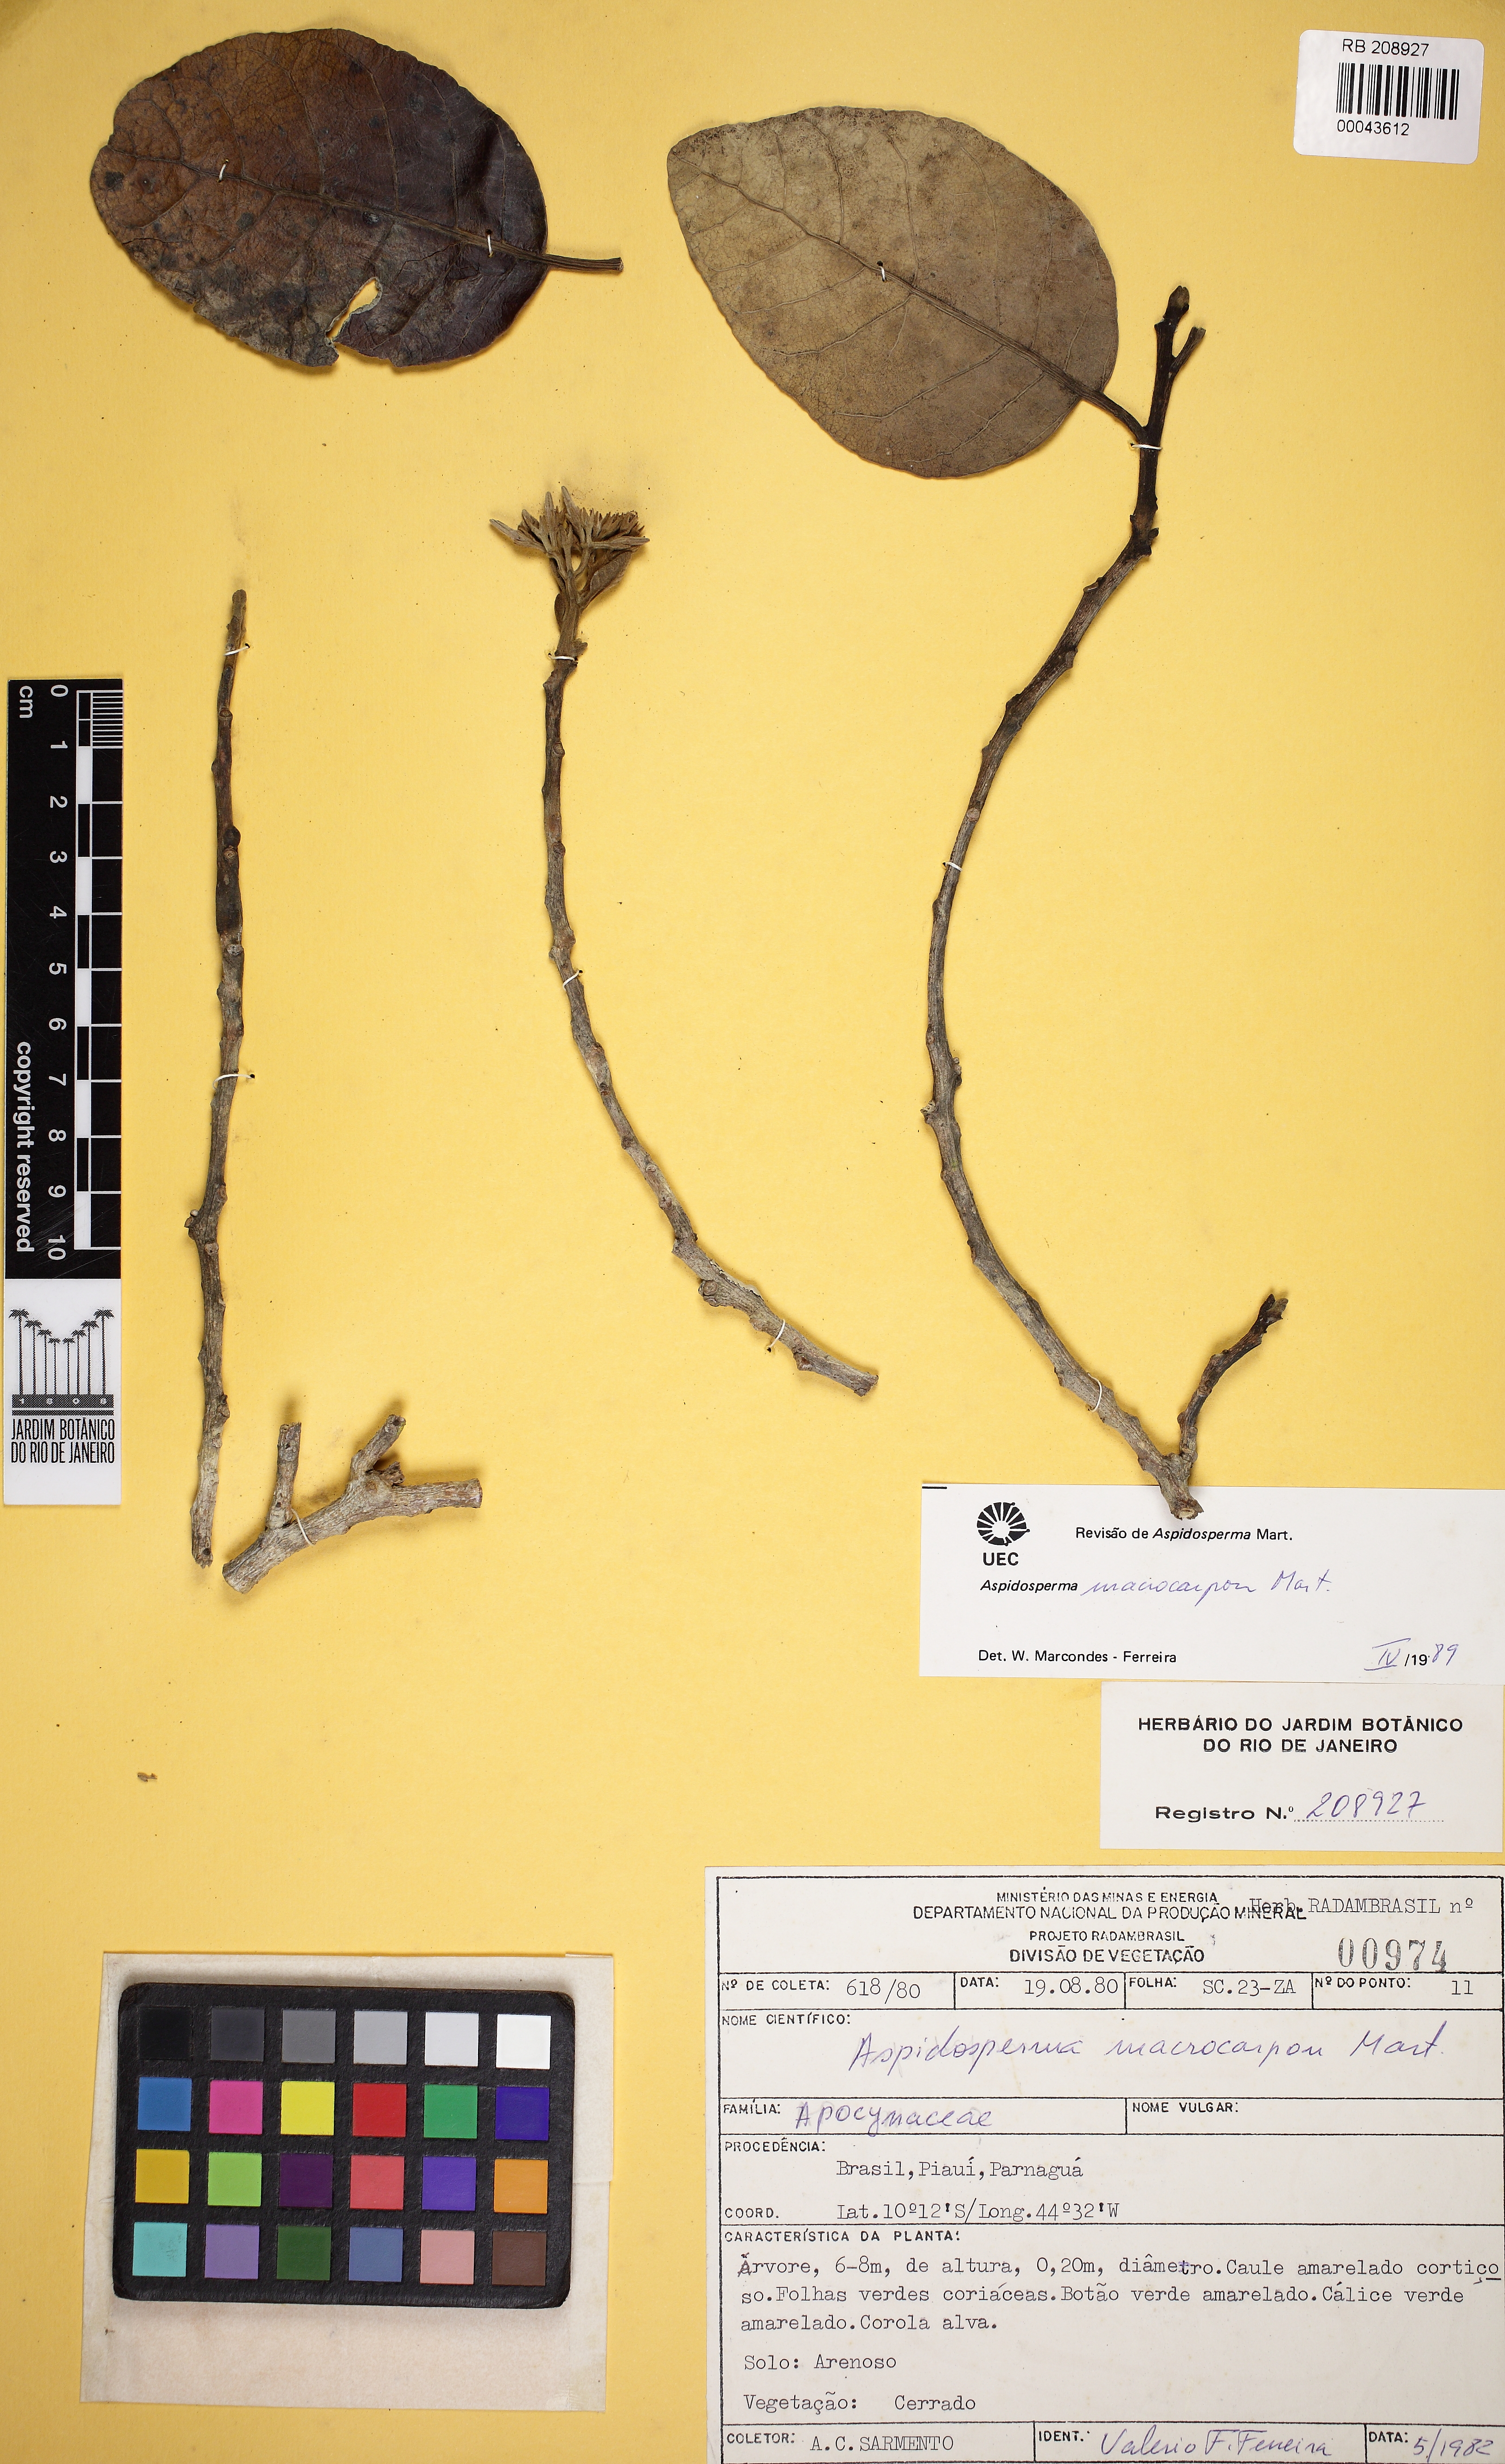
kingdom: Plantae
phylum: Tracheophyta
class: Magnoliopsida
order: Gentianales
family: Apocynaceae
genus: Aspidosperma
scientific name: Aspidosperma macrocarpon
